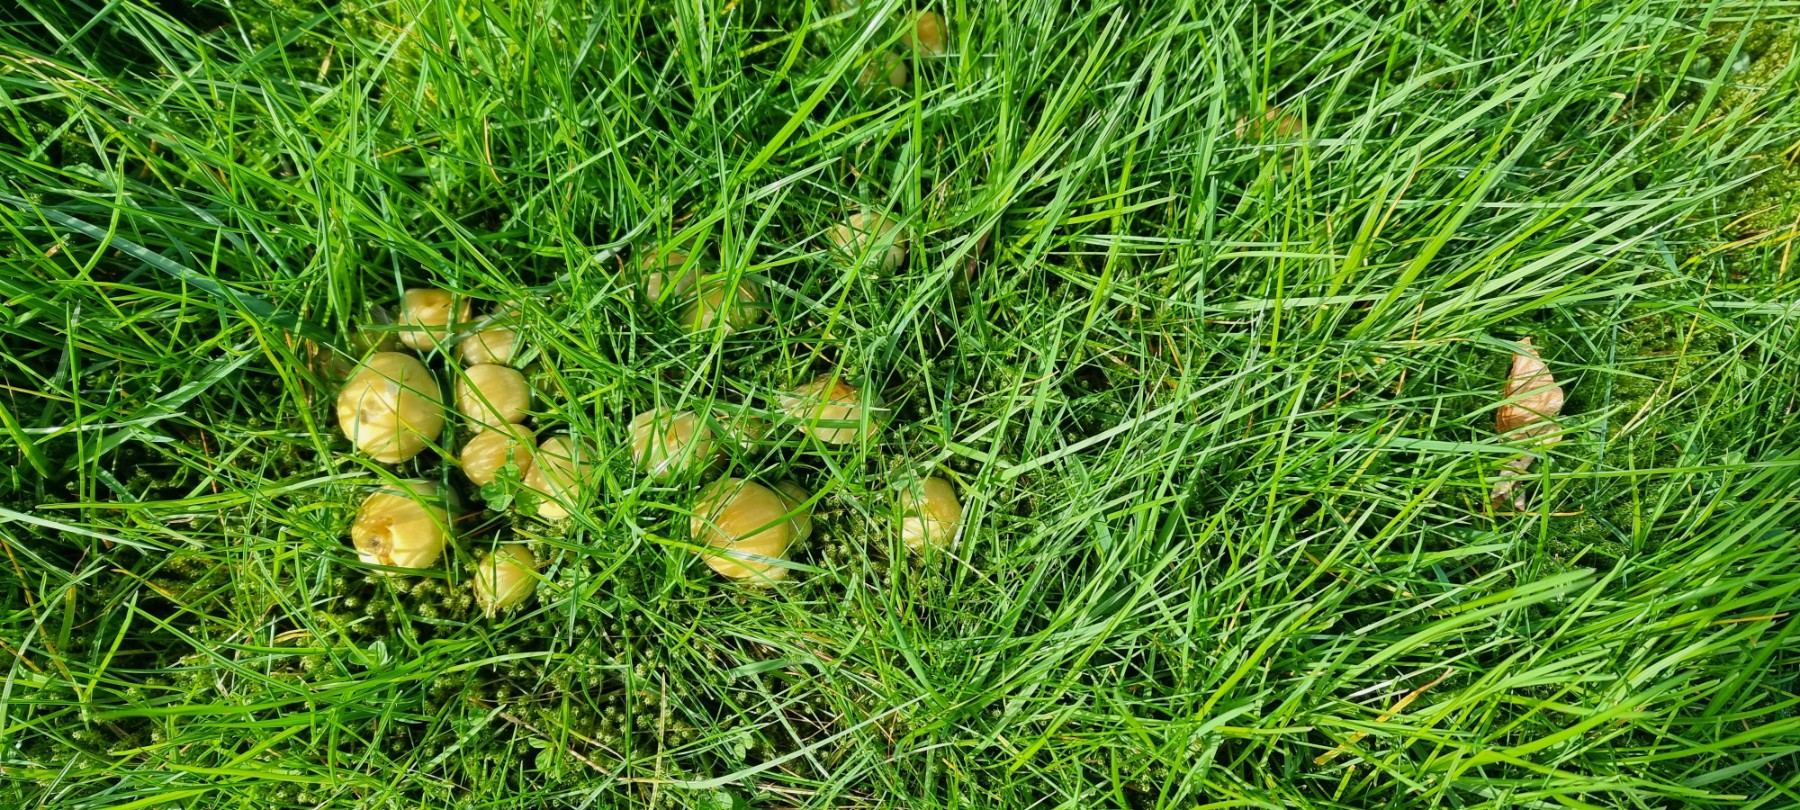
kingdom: Fungi
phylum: Basidiomycota
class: Agaricomycetes
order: Agaricales
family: Strophariaceae
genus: Hypholoma
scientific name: Hypholoma fasciculare
